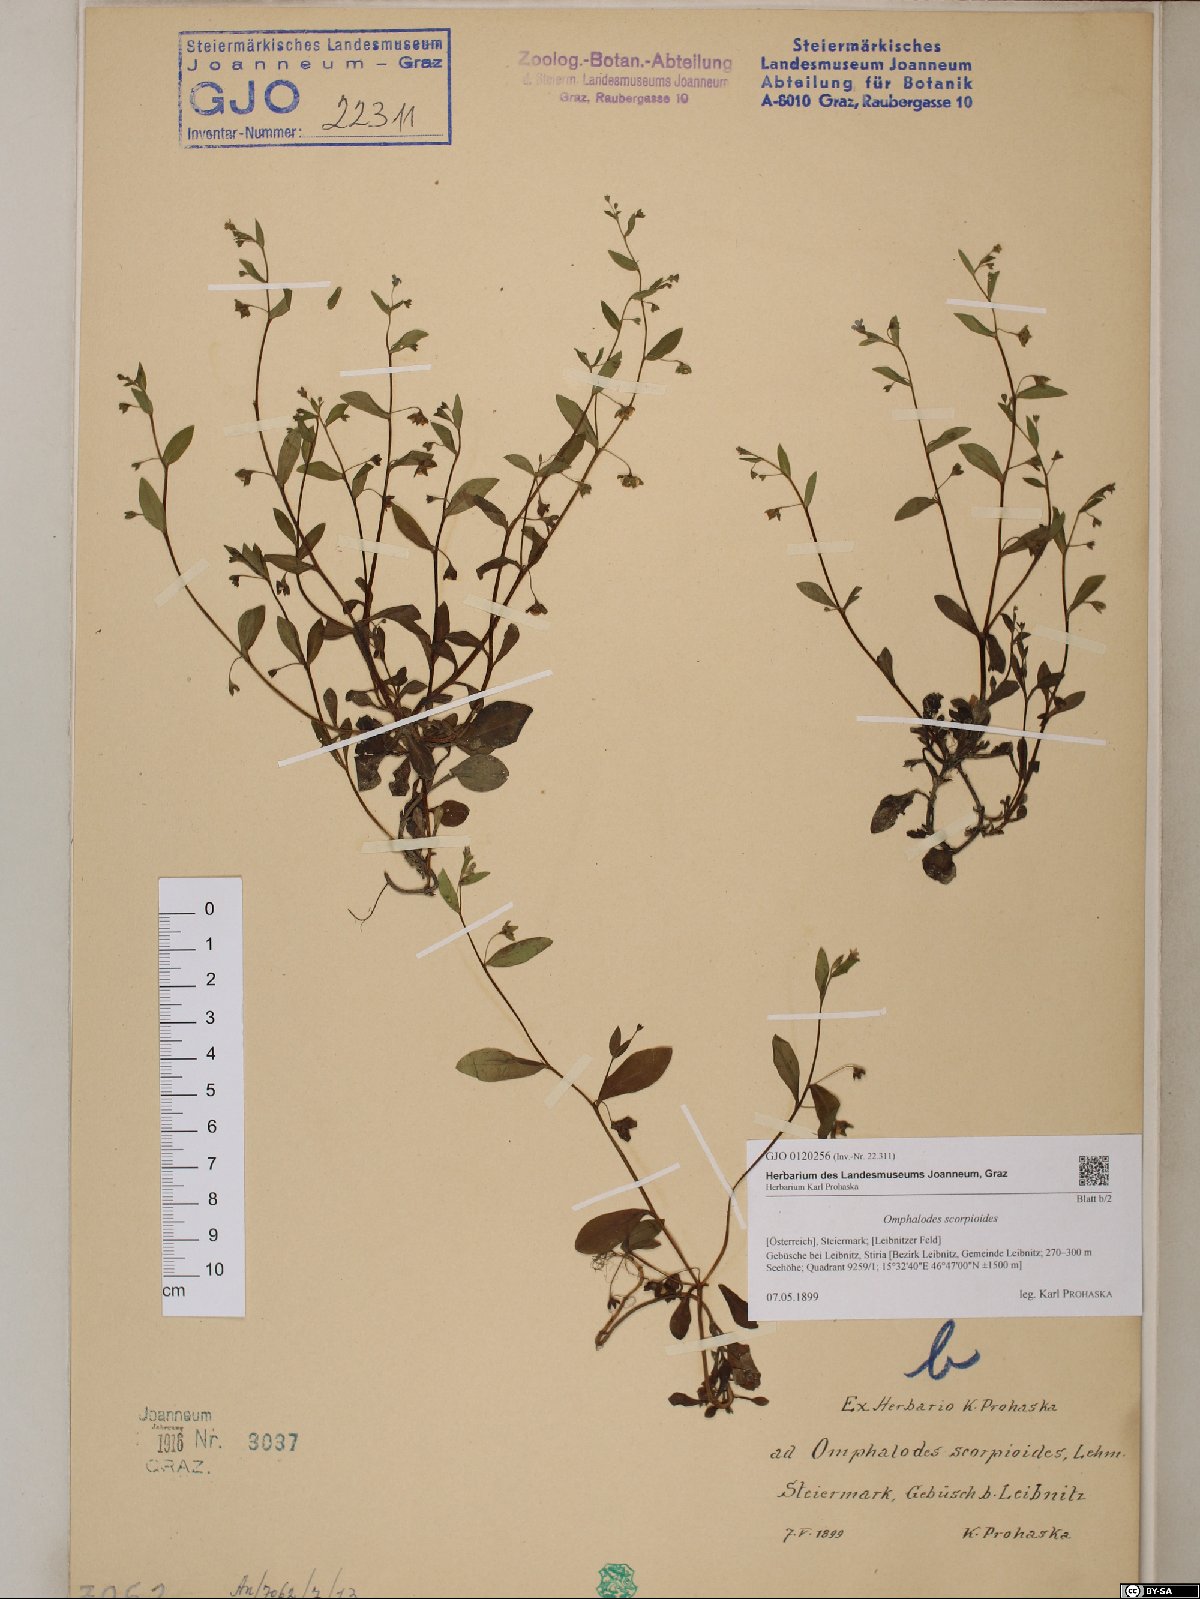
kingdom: Plantae
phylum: Tracheophyta
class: Magnoliopsida
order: Boraginales
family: Boraginaceae
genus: Memoremea
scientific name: Memoremea scorpioides
